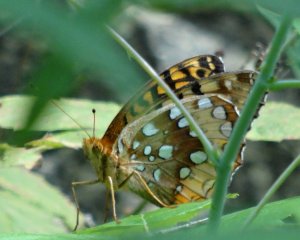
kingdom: Animalia
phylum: Arthropoda
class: Insecta
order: Lepidoptera
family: Nymphalidae
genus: Speyeria
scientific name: Speyeria cybele
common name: Great Spangled Fritillary
